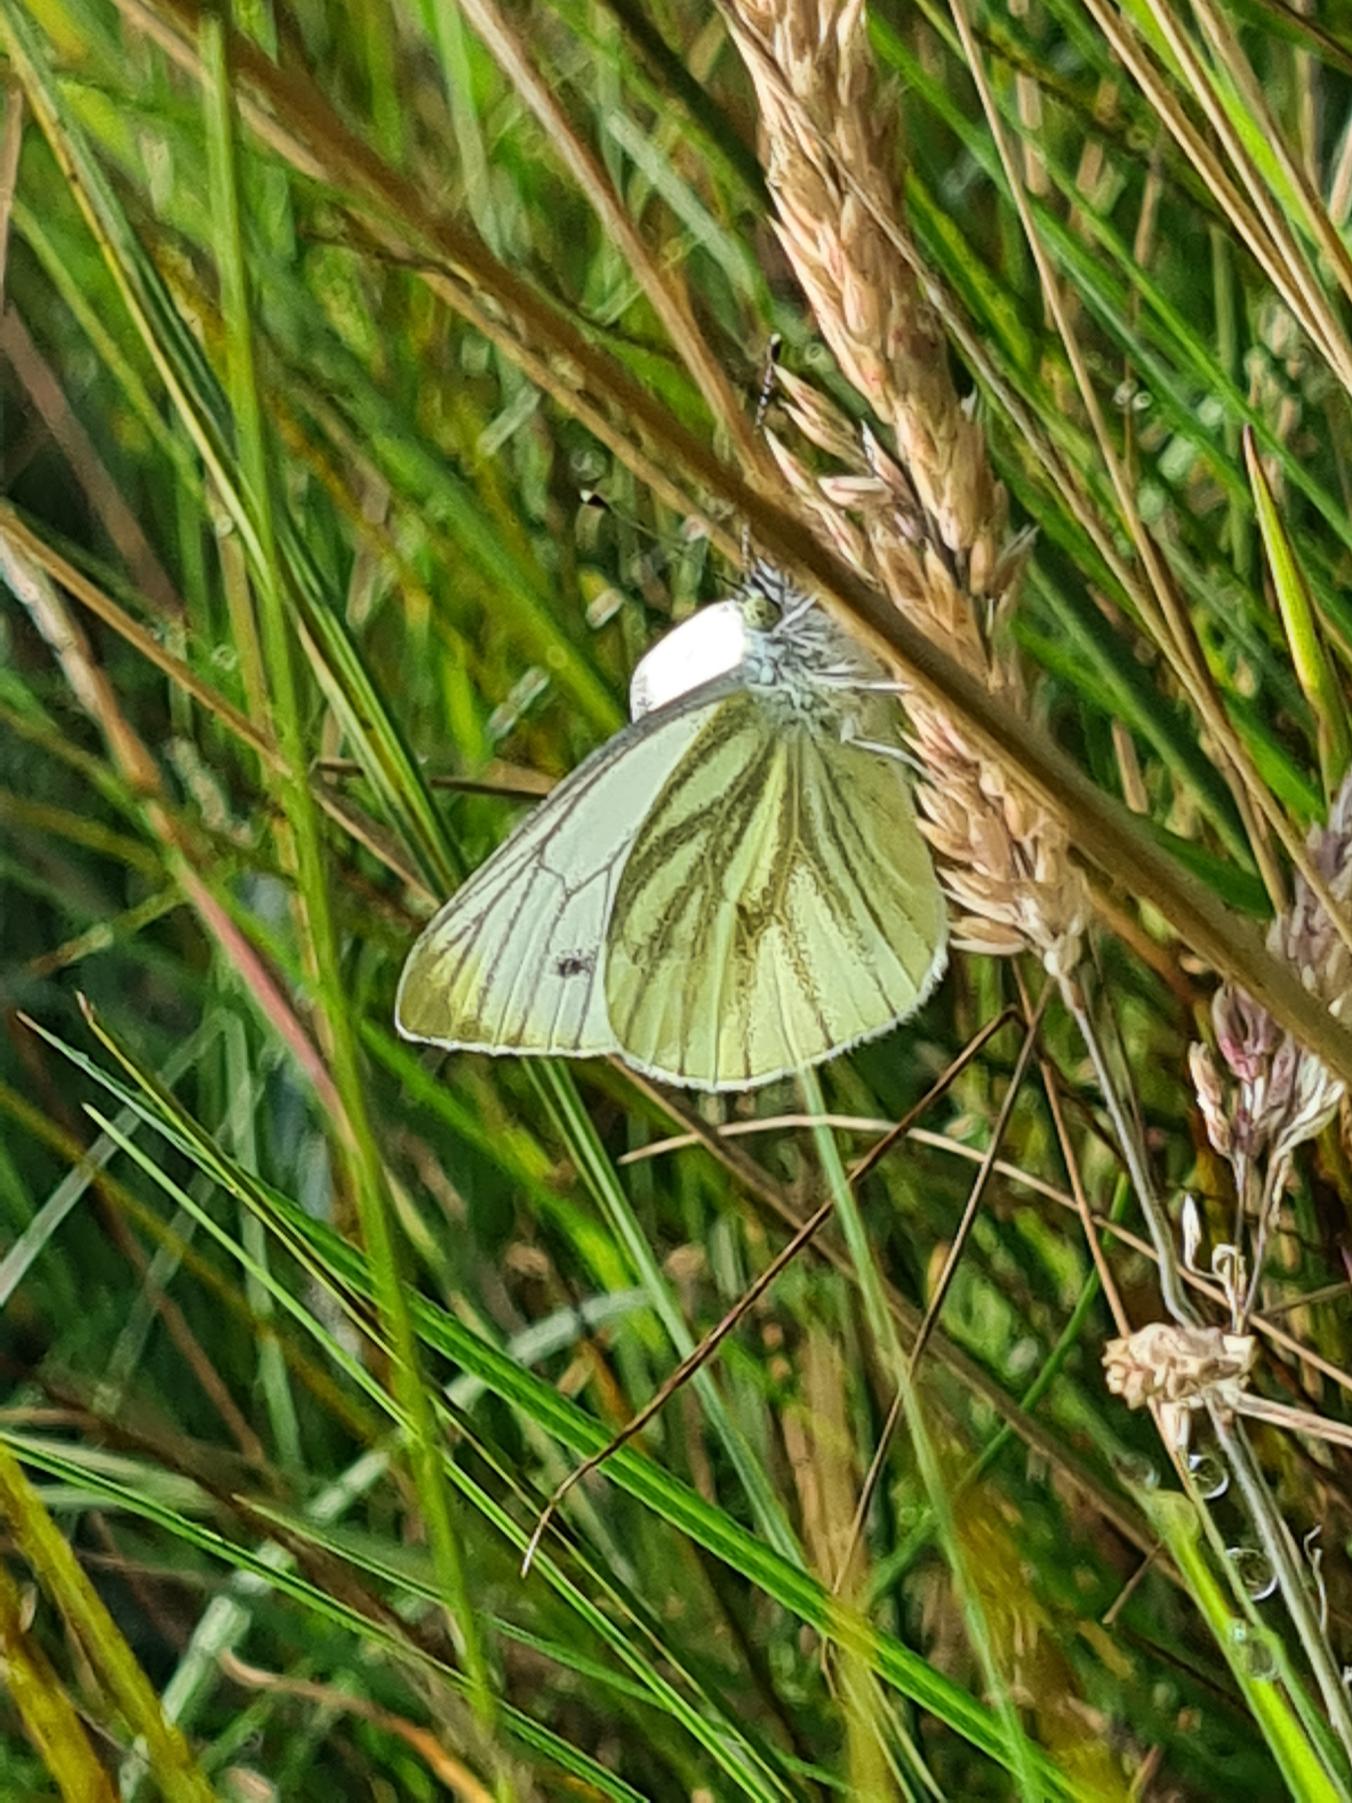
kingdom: Animalia
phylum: Arthropoda
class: Insecta
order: Lepidoptera
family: Pieridae
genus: Pieris
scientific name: Pieris napi
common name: Grønåret kålsommerfugl
